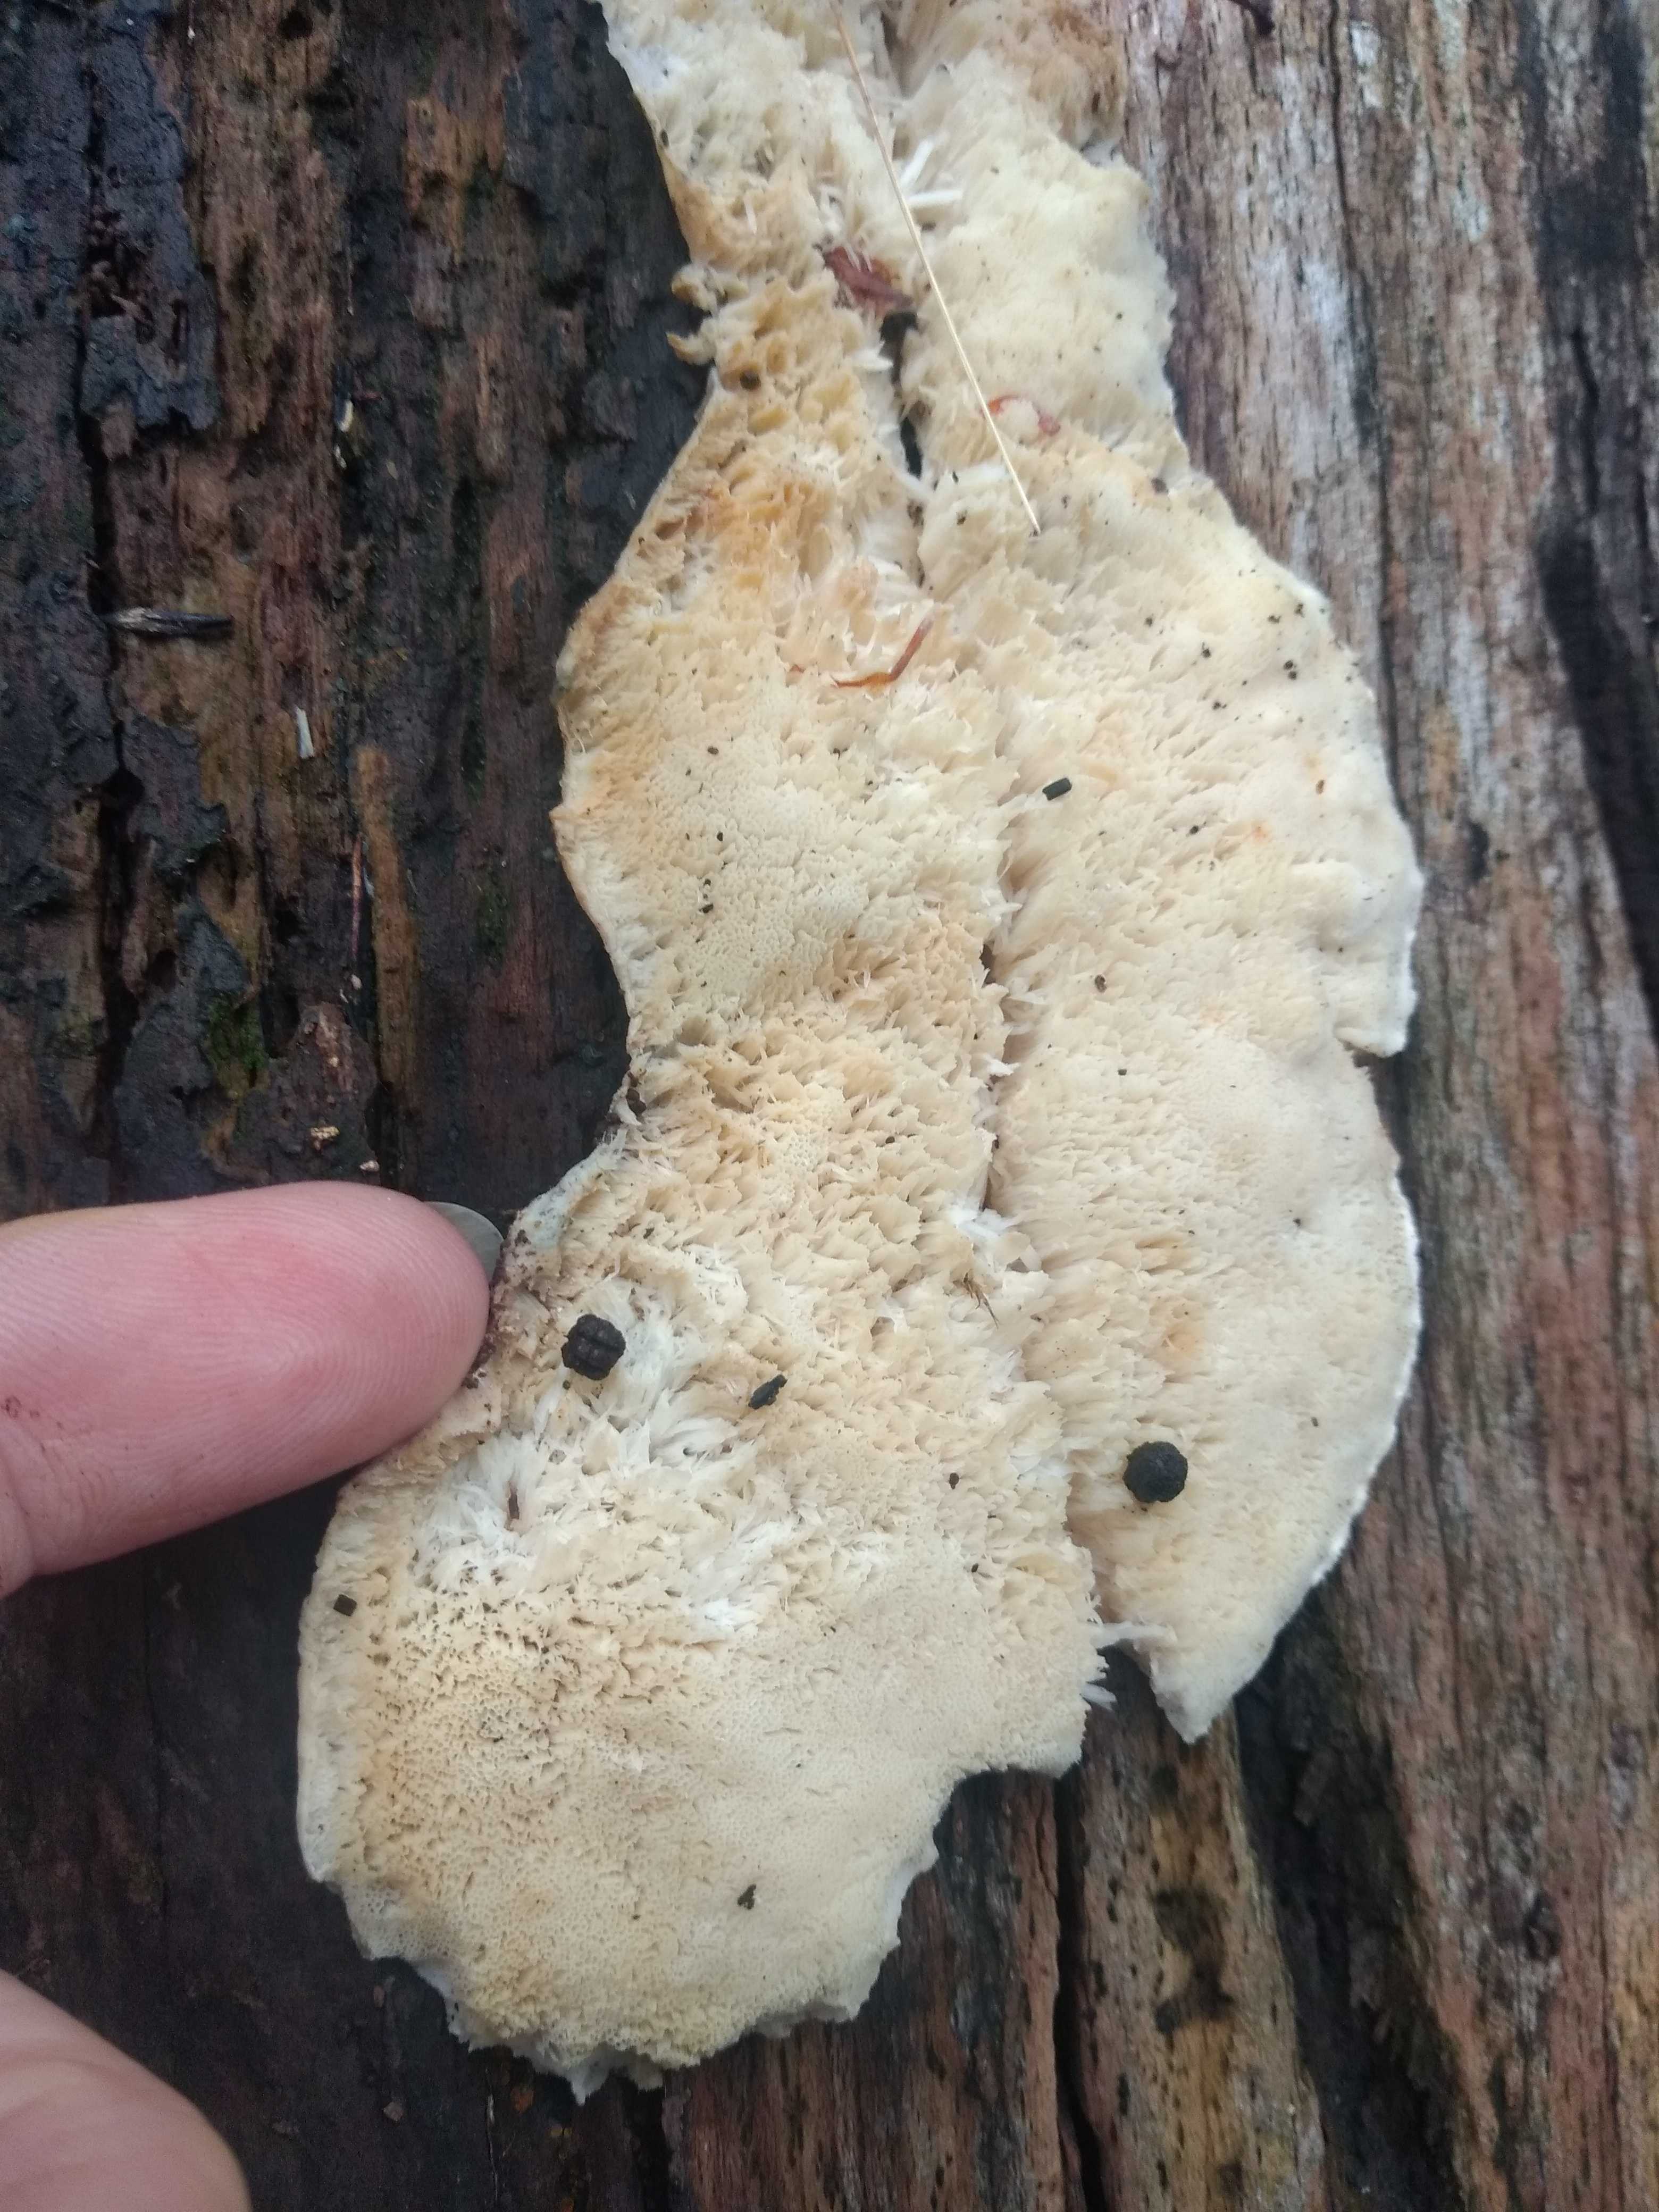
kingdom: Fungi
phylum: Basidiomycota
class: Agaricomycetes
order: Polyporales
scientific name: Polyporales
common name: poresvampordenen
